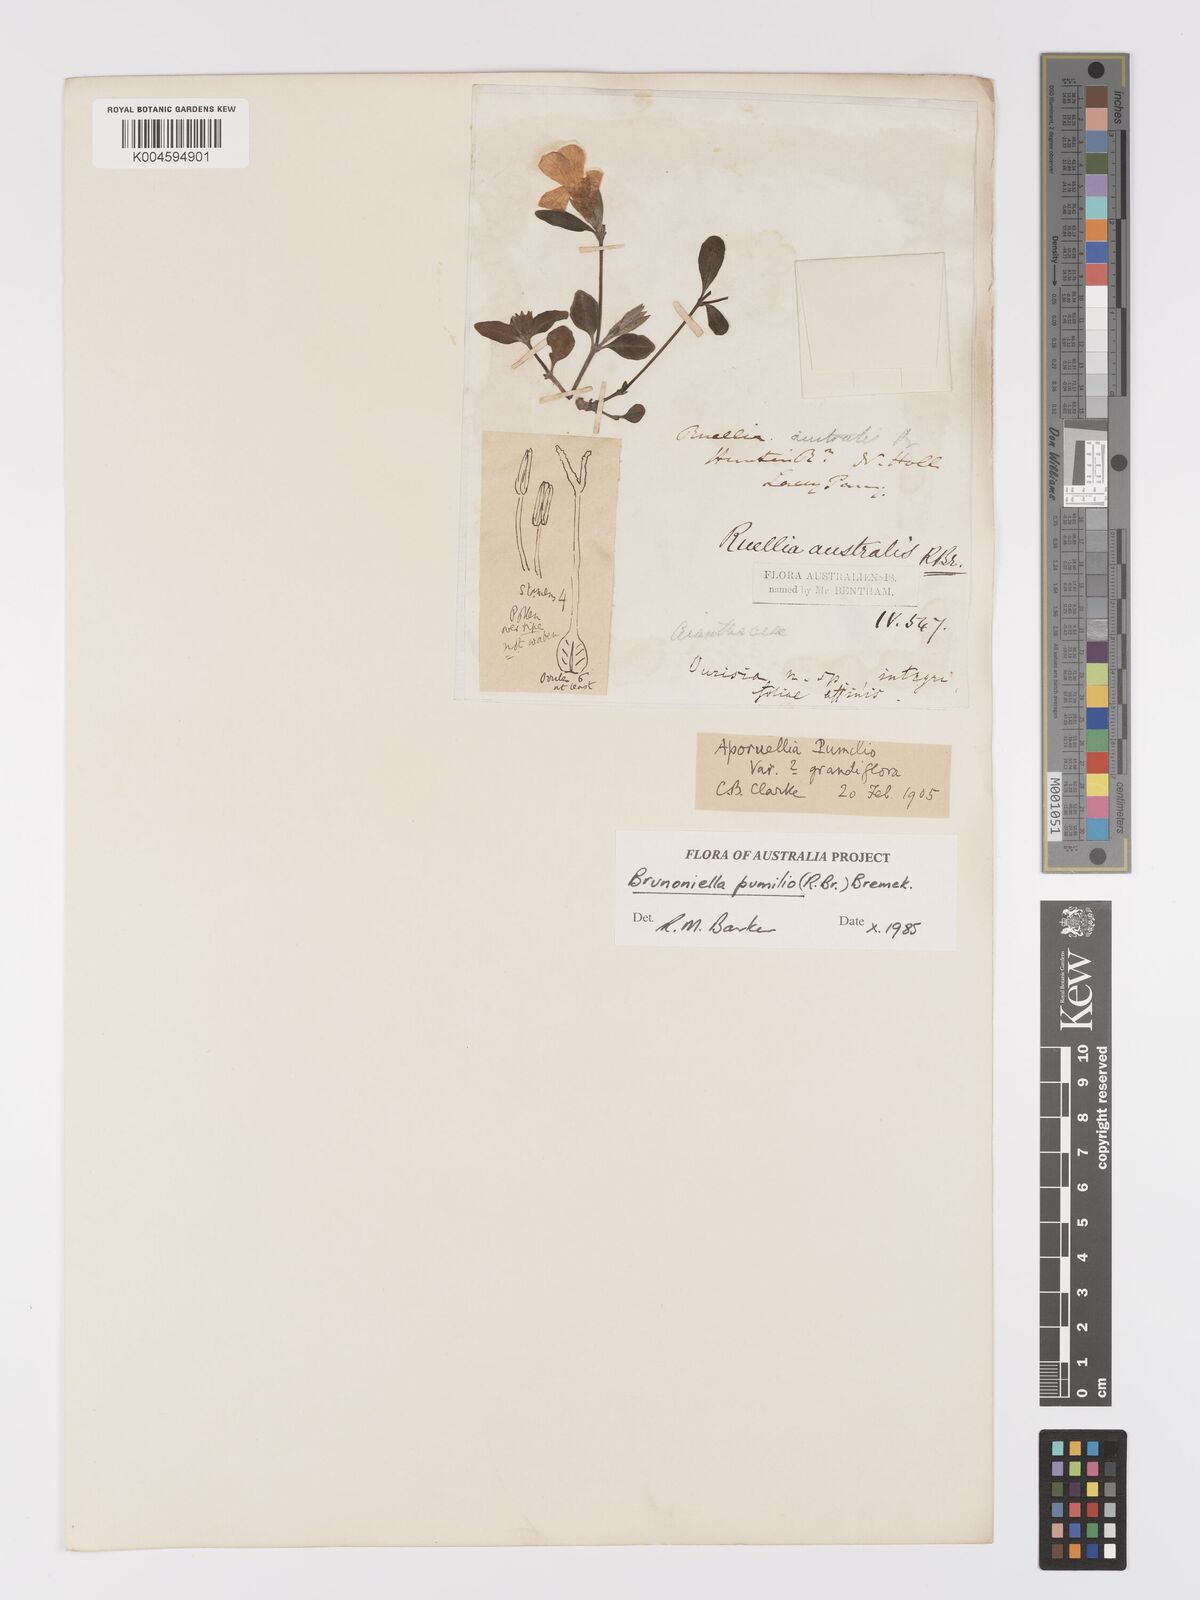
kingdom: Plantae
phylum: Tracheophyta
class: Magnoliopsida
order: Lamiales
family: Acanthaceae
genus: Brunoniella
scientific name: Brunoniella pumilio
